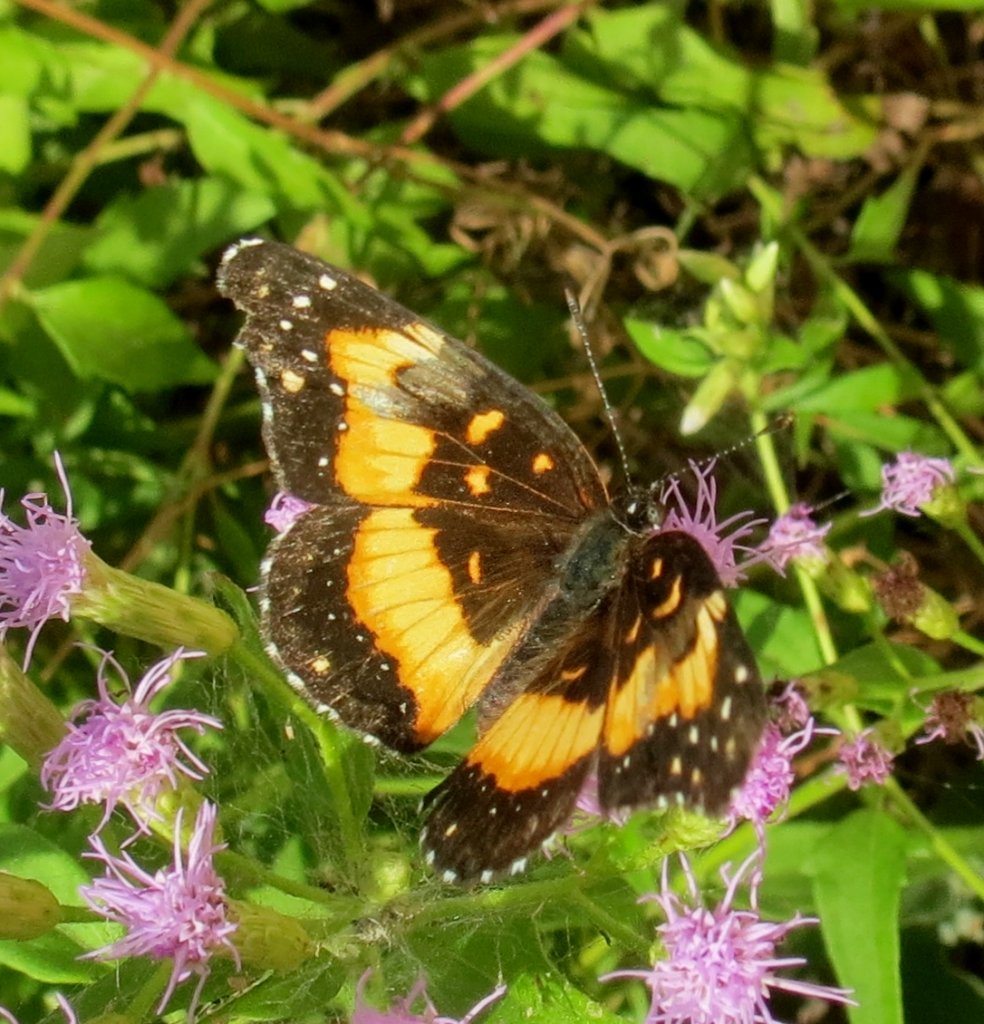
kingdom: Animalia
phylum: Arthropoda
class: Insecta
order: Lepidoptera
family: Nymphalidae
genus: Chlosyne
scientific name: Chlosyne lacinia
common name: Bordered Patch
